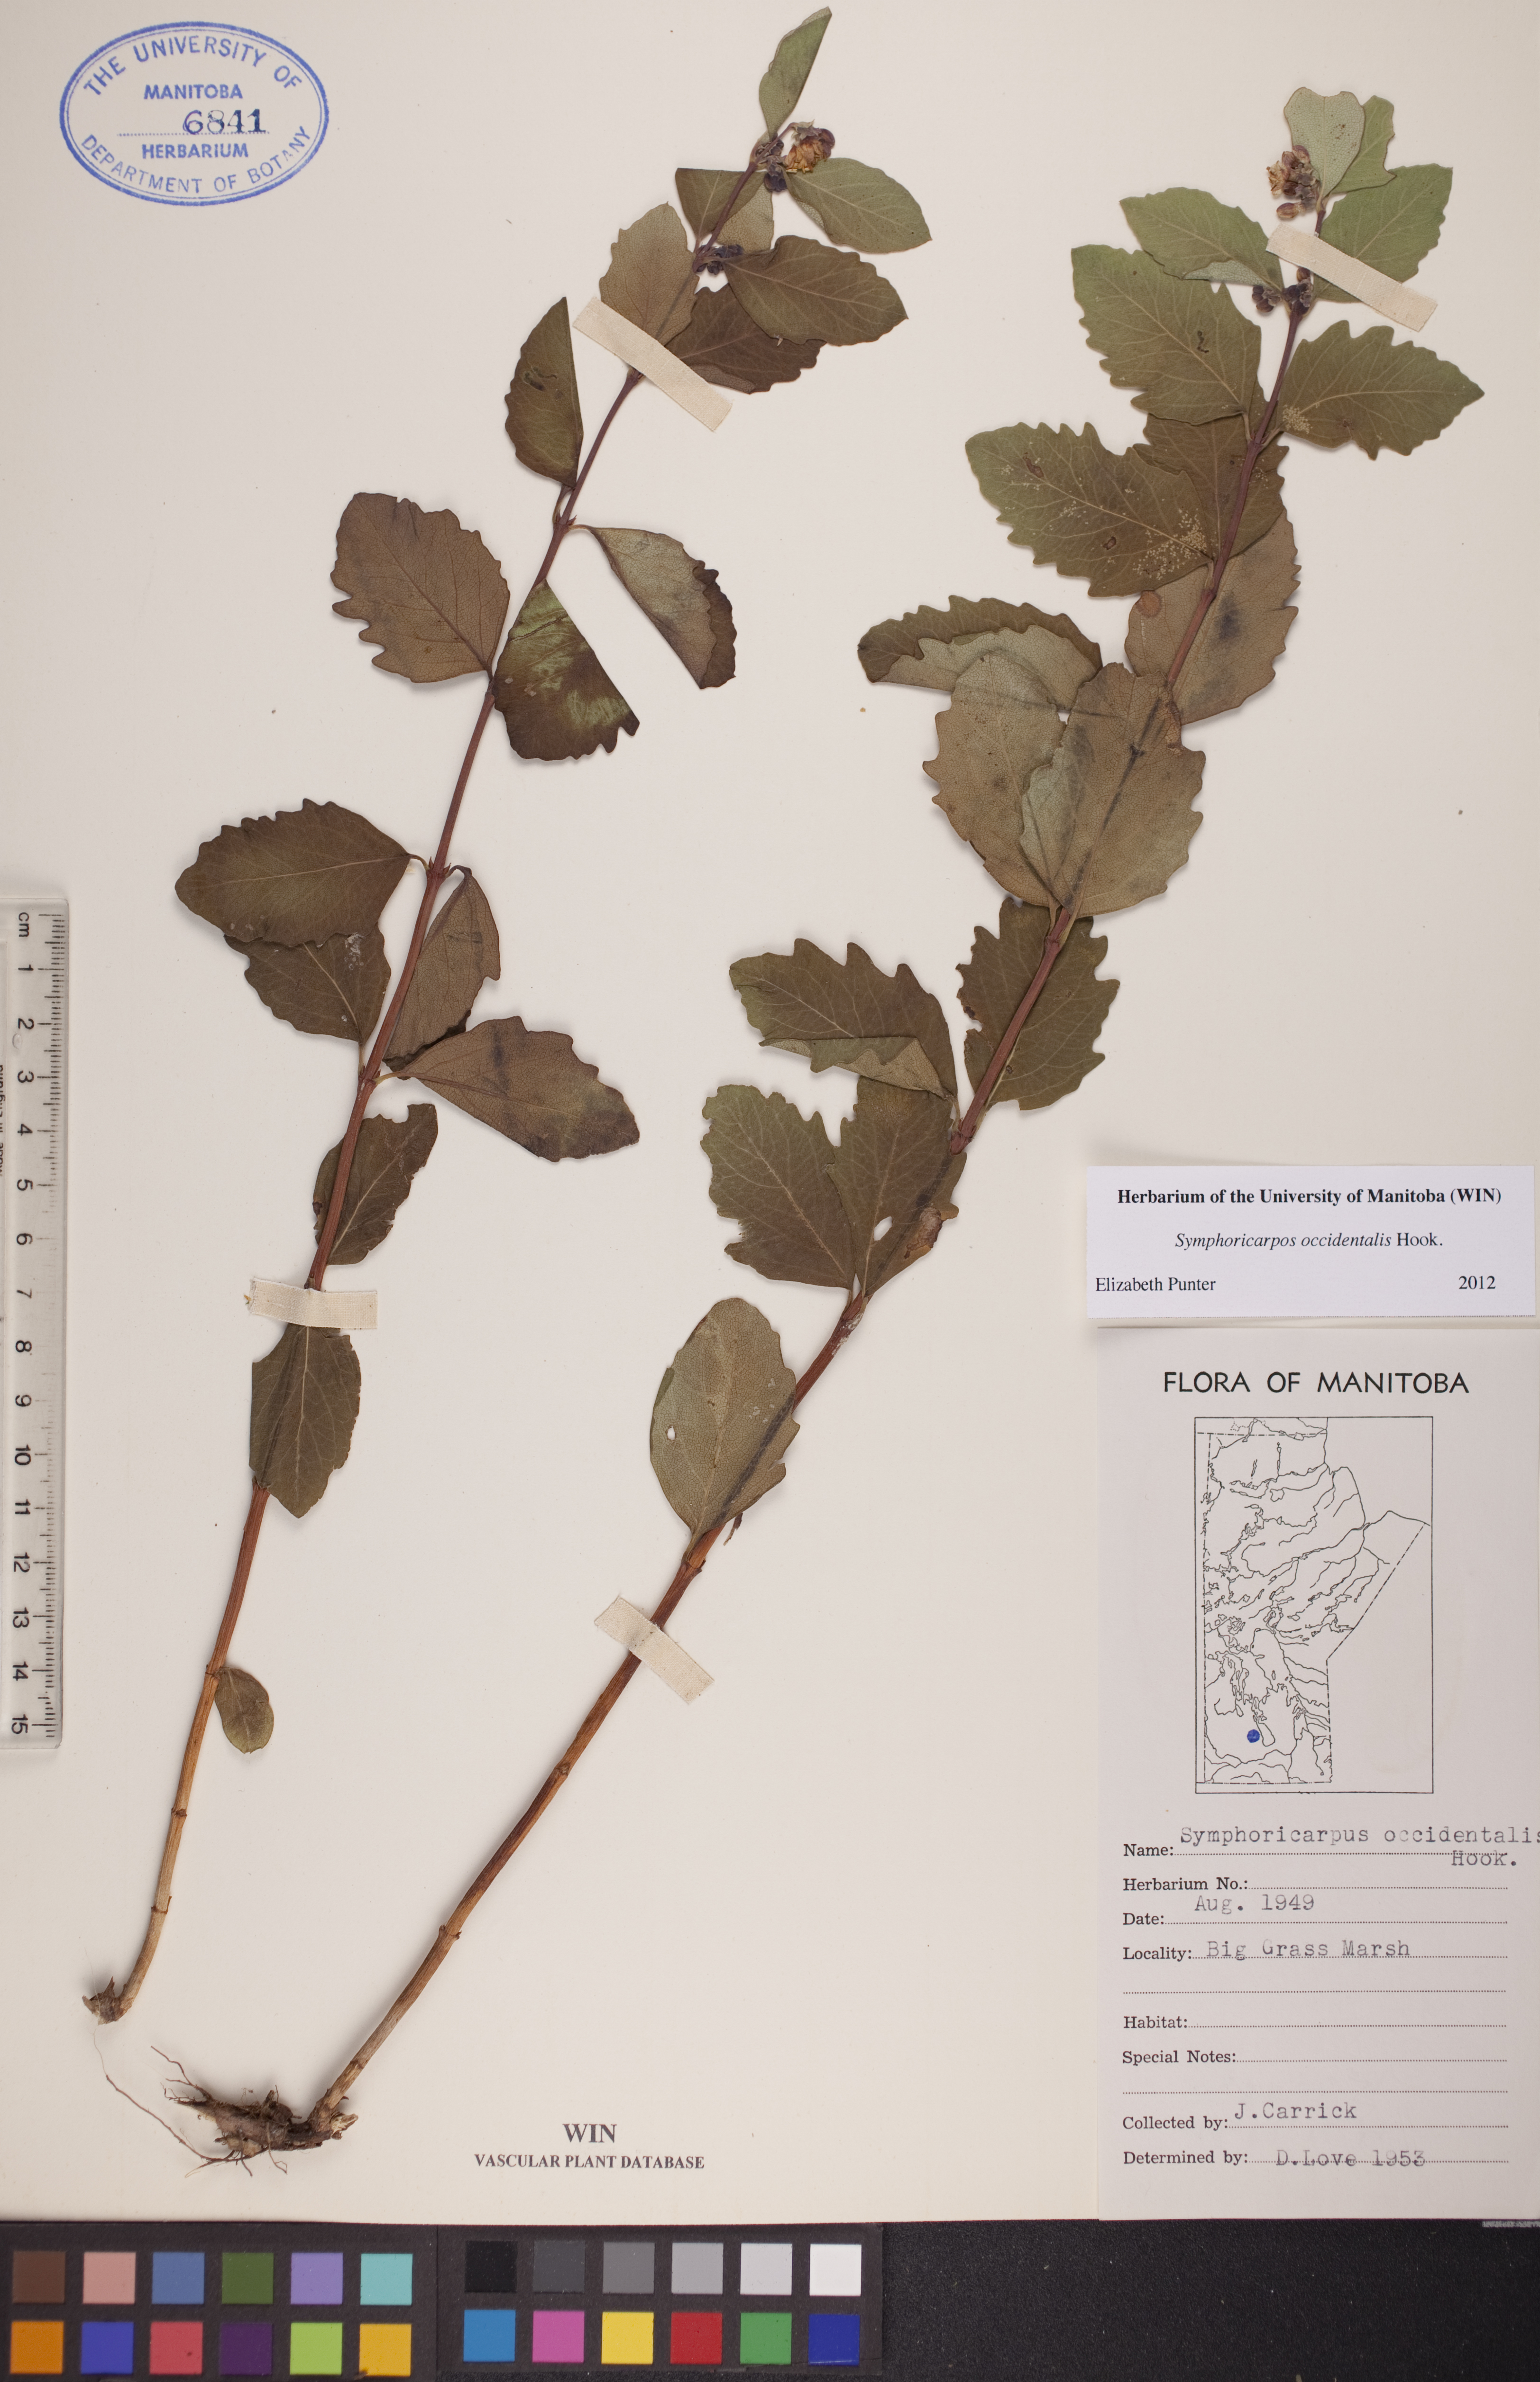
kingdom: Plantae
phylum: Tracheophyta
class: Magnoliopsida
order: Dipsacales
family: Caprifoliaceae
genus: Symphoricarpos
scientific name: Symphoricarpos occidentalis
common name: Wolfberry
